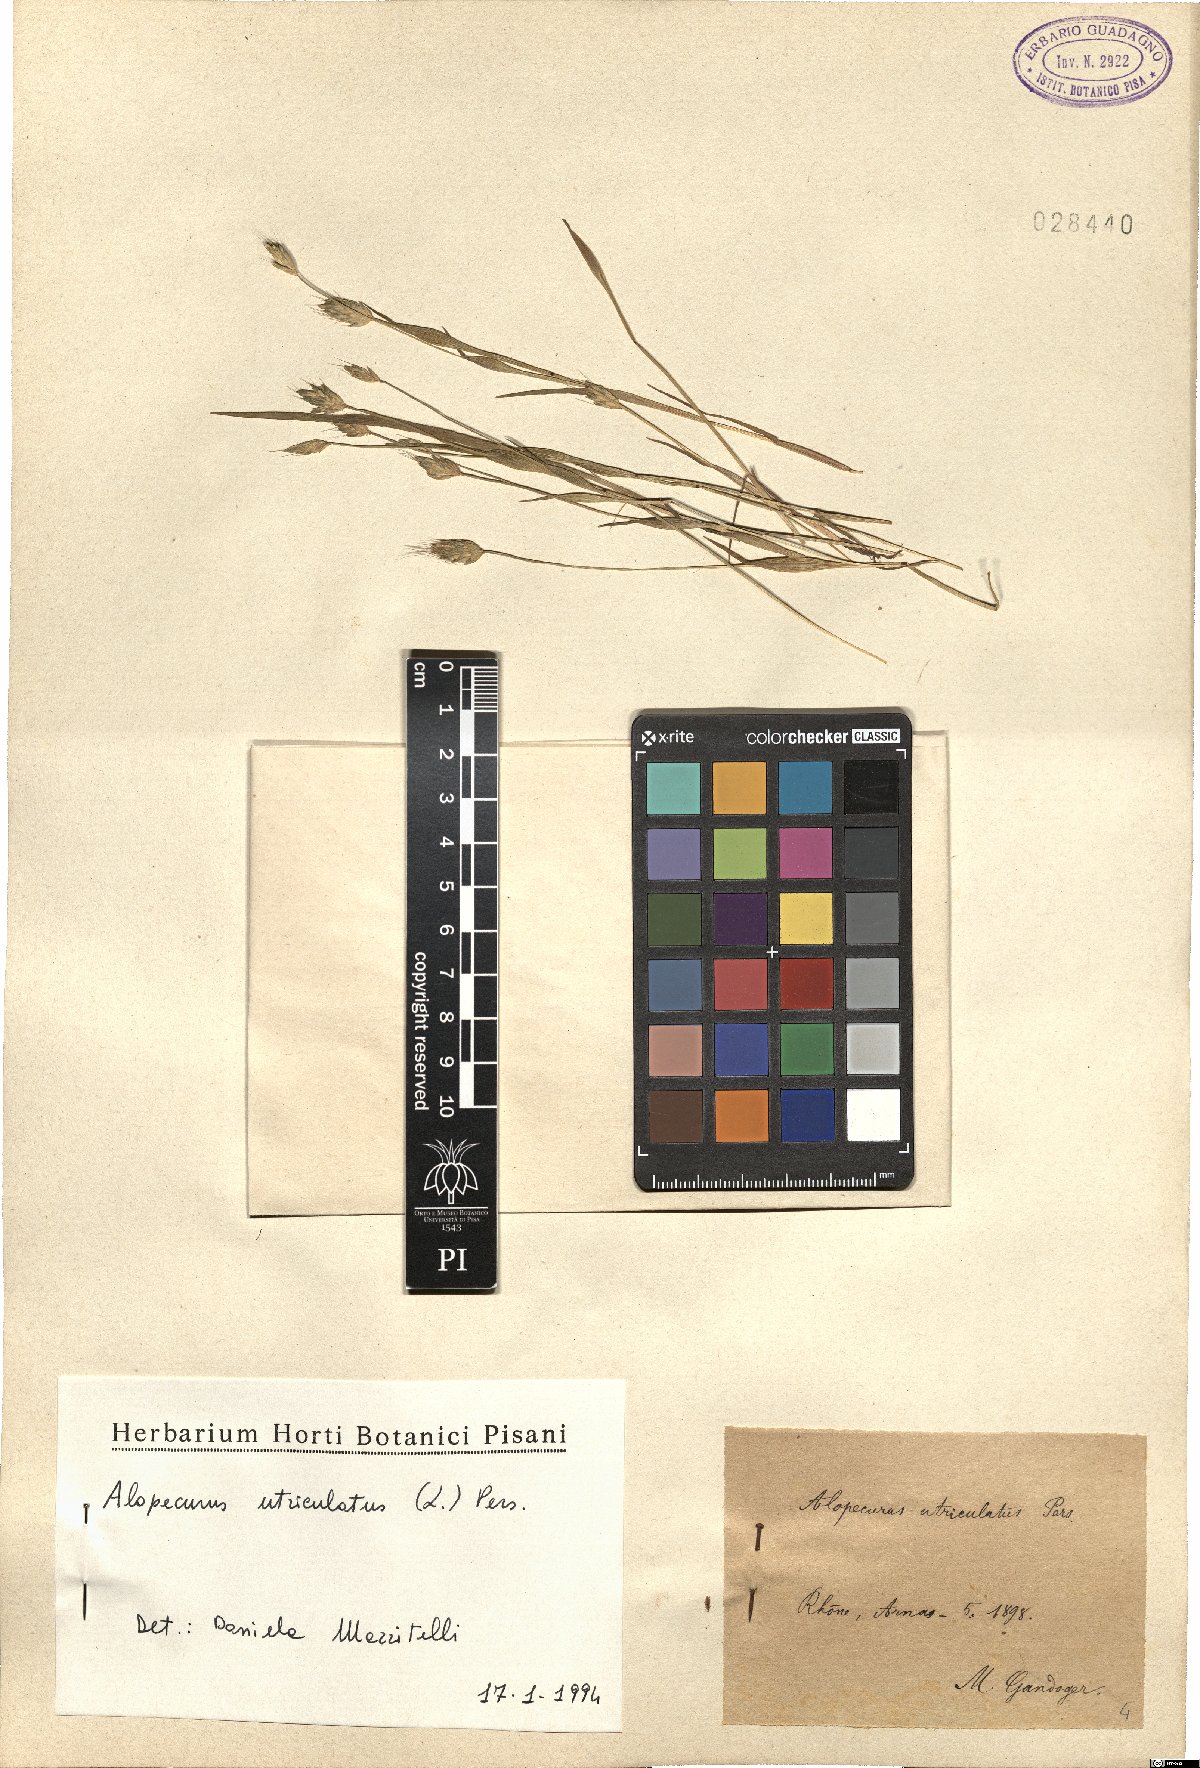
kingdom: Plantae
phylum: Tracheophyta
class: Liliopsida
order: Poales
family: Poaceae
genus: Alopecurus
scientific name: Alopecurus rendlei
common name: Rendle's meadow foxtail
